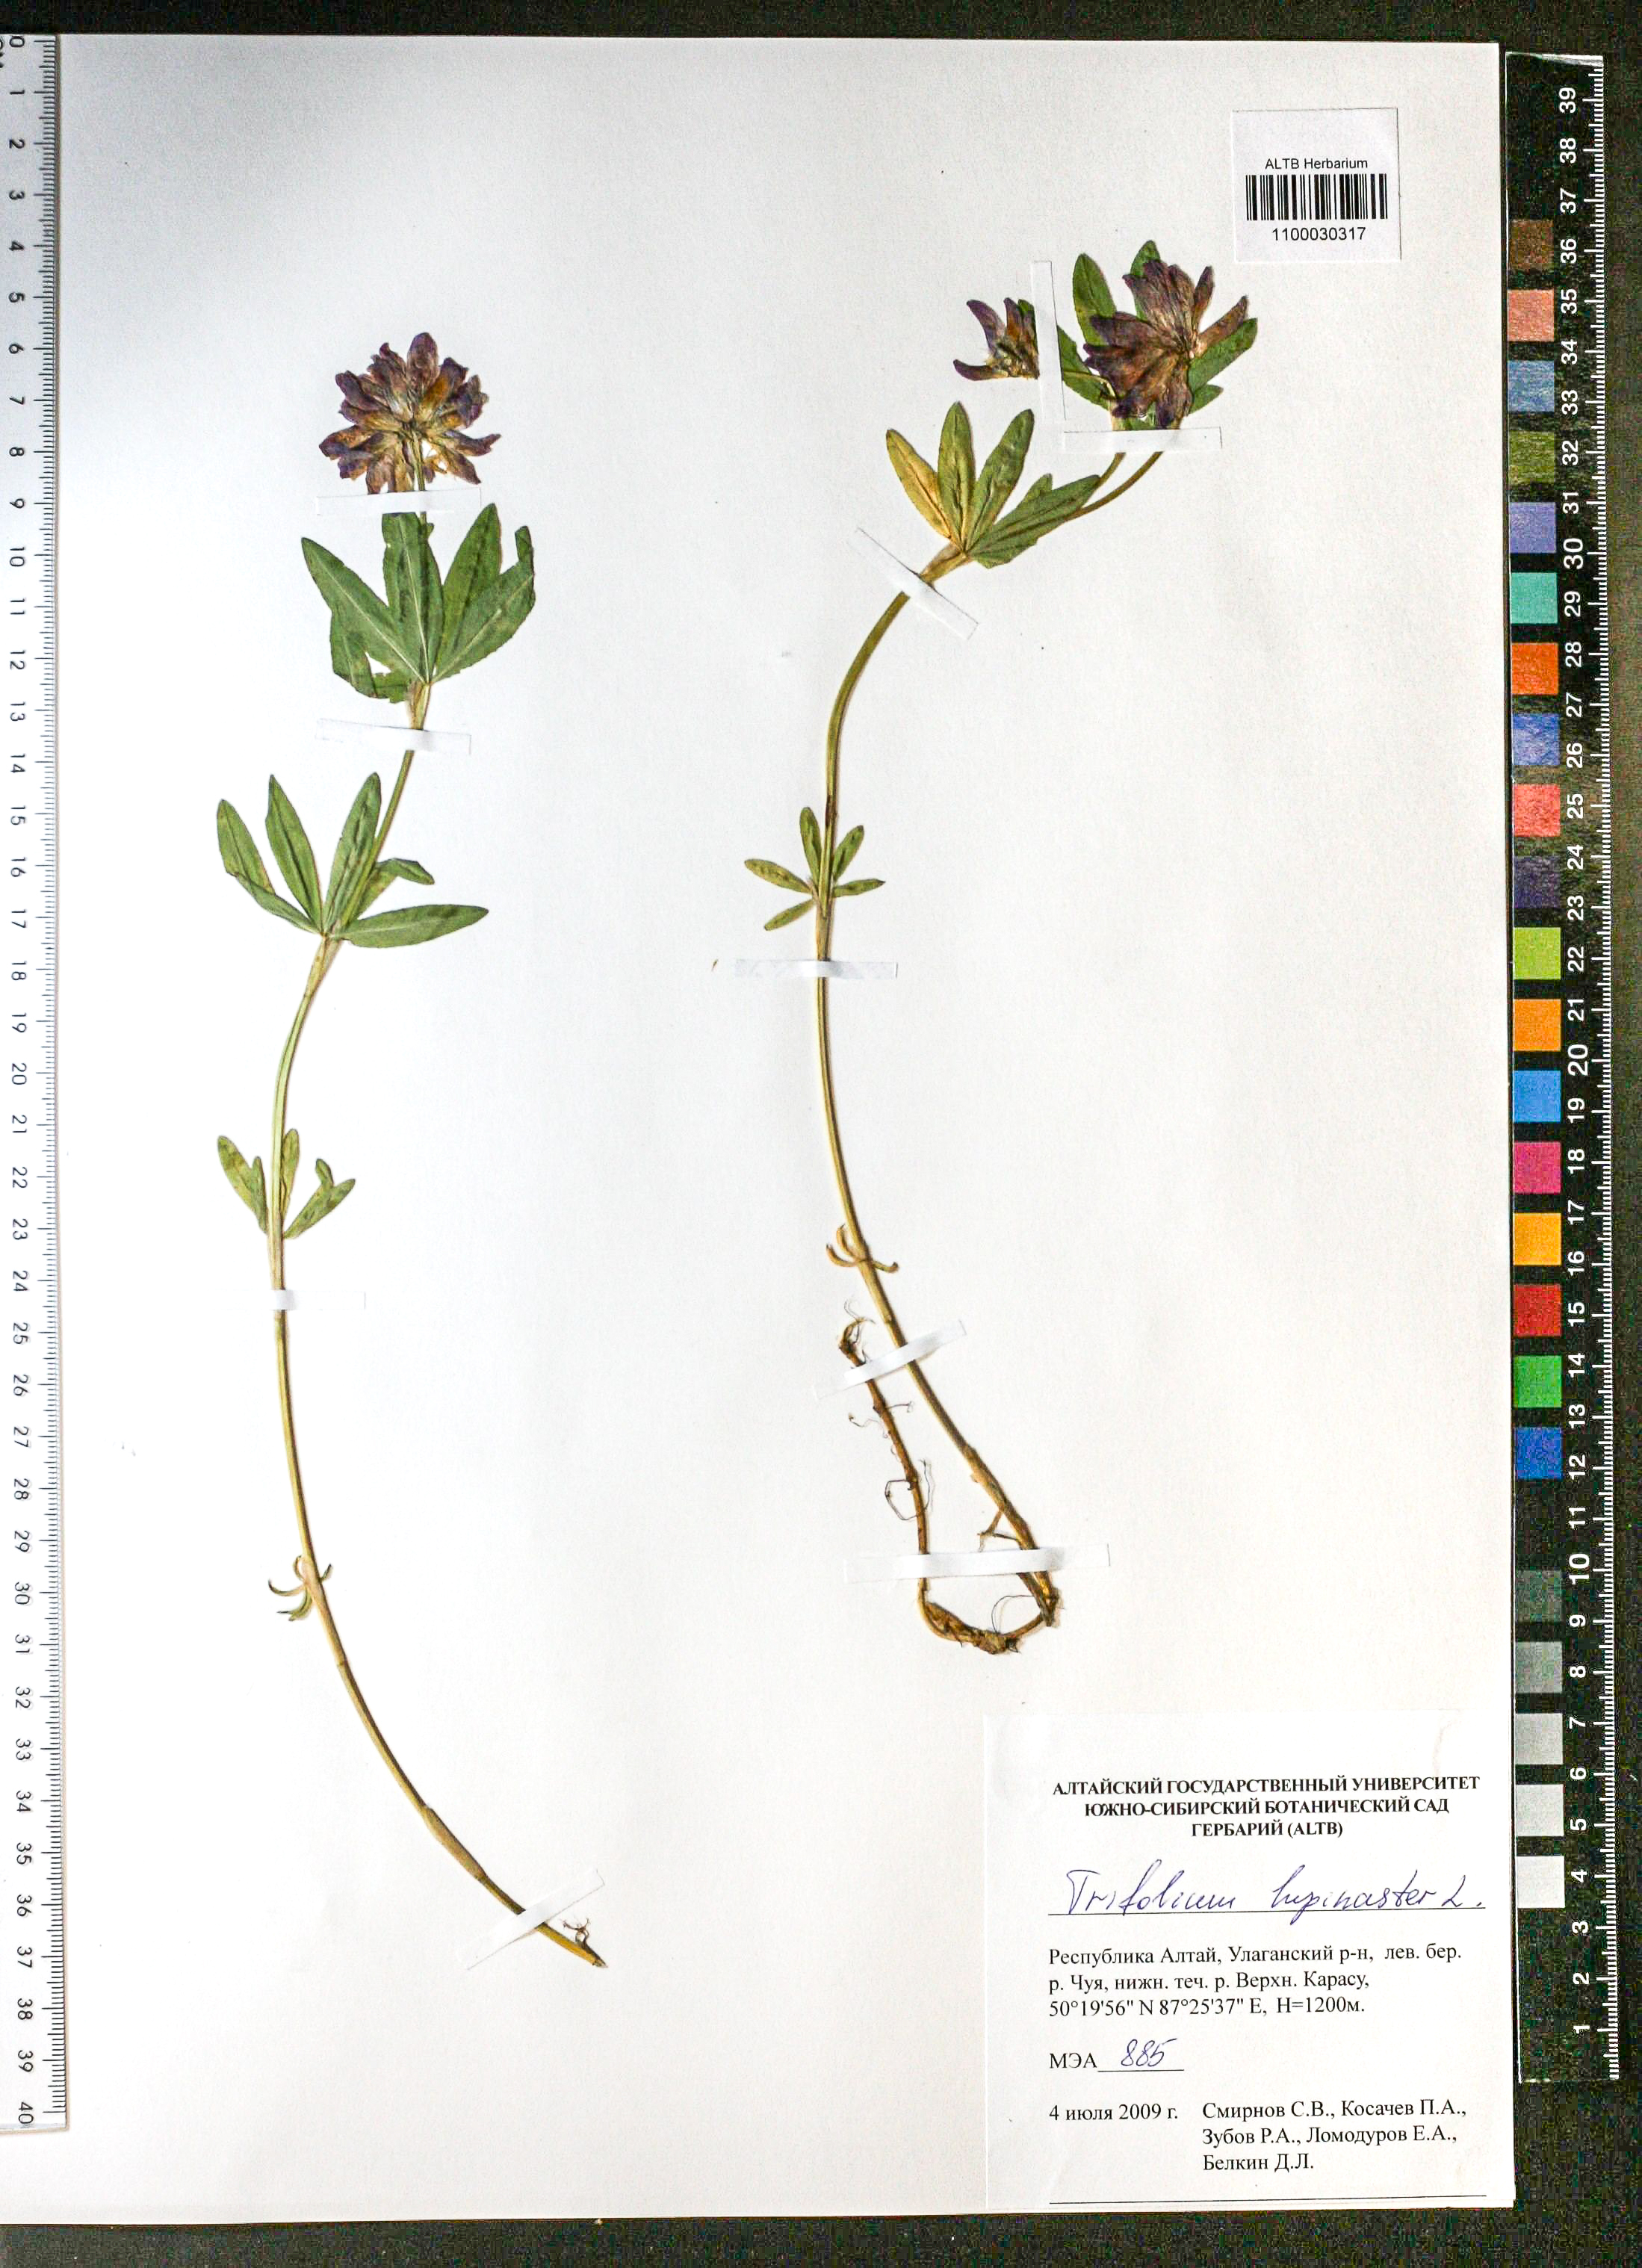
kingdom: Plantae
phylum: Tracheophyta
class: Magnoliopsida
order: Fabales
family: Fabaceae
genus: Trifolium
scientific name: Trifolium lupinaster
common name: Lupine clover
